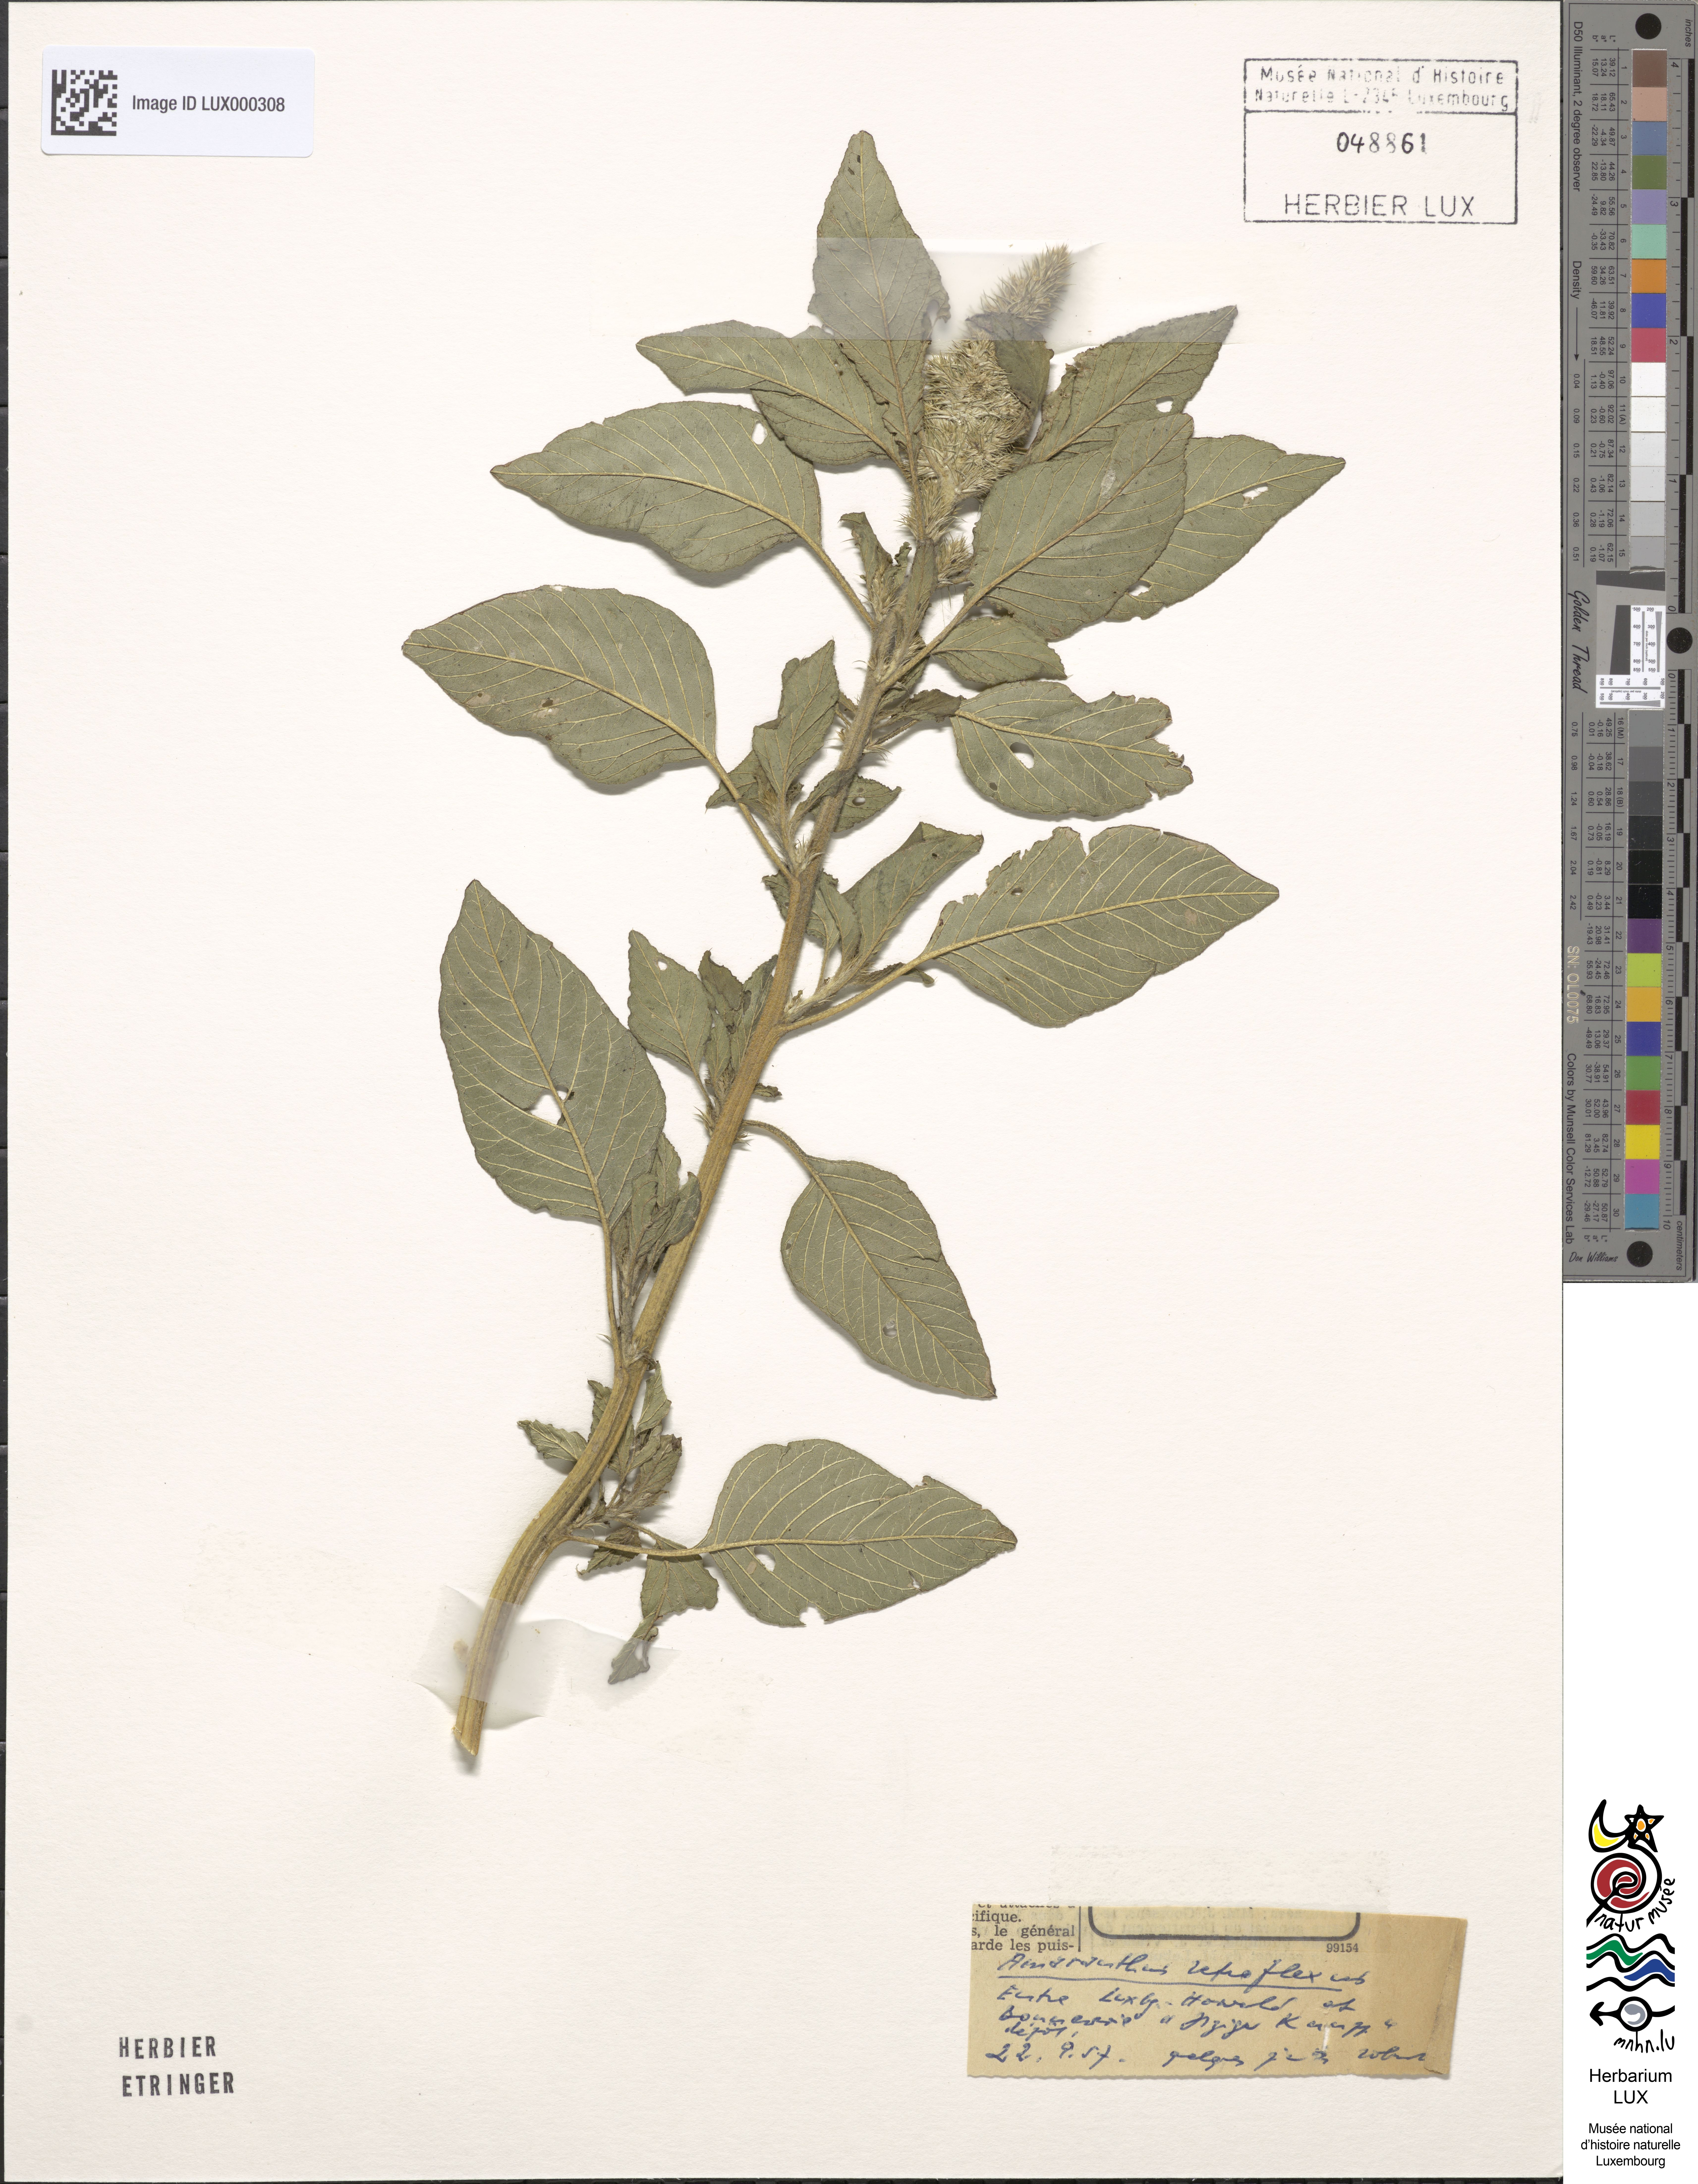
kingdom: Plantae
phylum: Tracheophyta
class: Magnoliopsida
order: Caryophyllales
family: Amaranthaceae
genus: Amaranthus
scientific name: Amaranthus retroflexus
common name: Redroot amaranth
